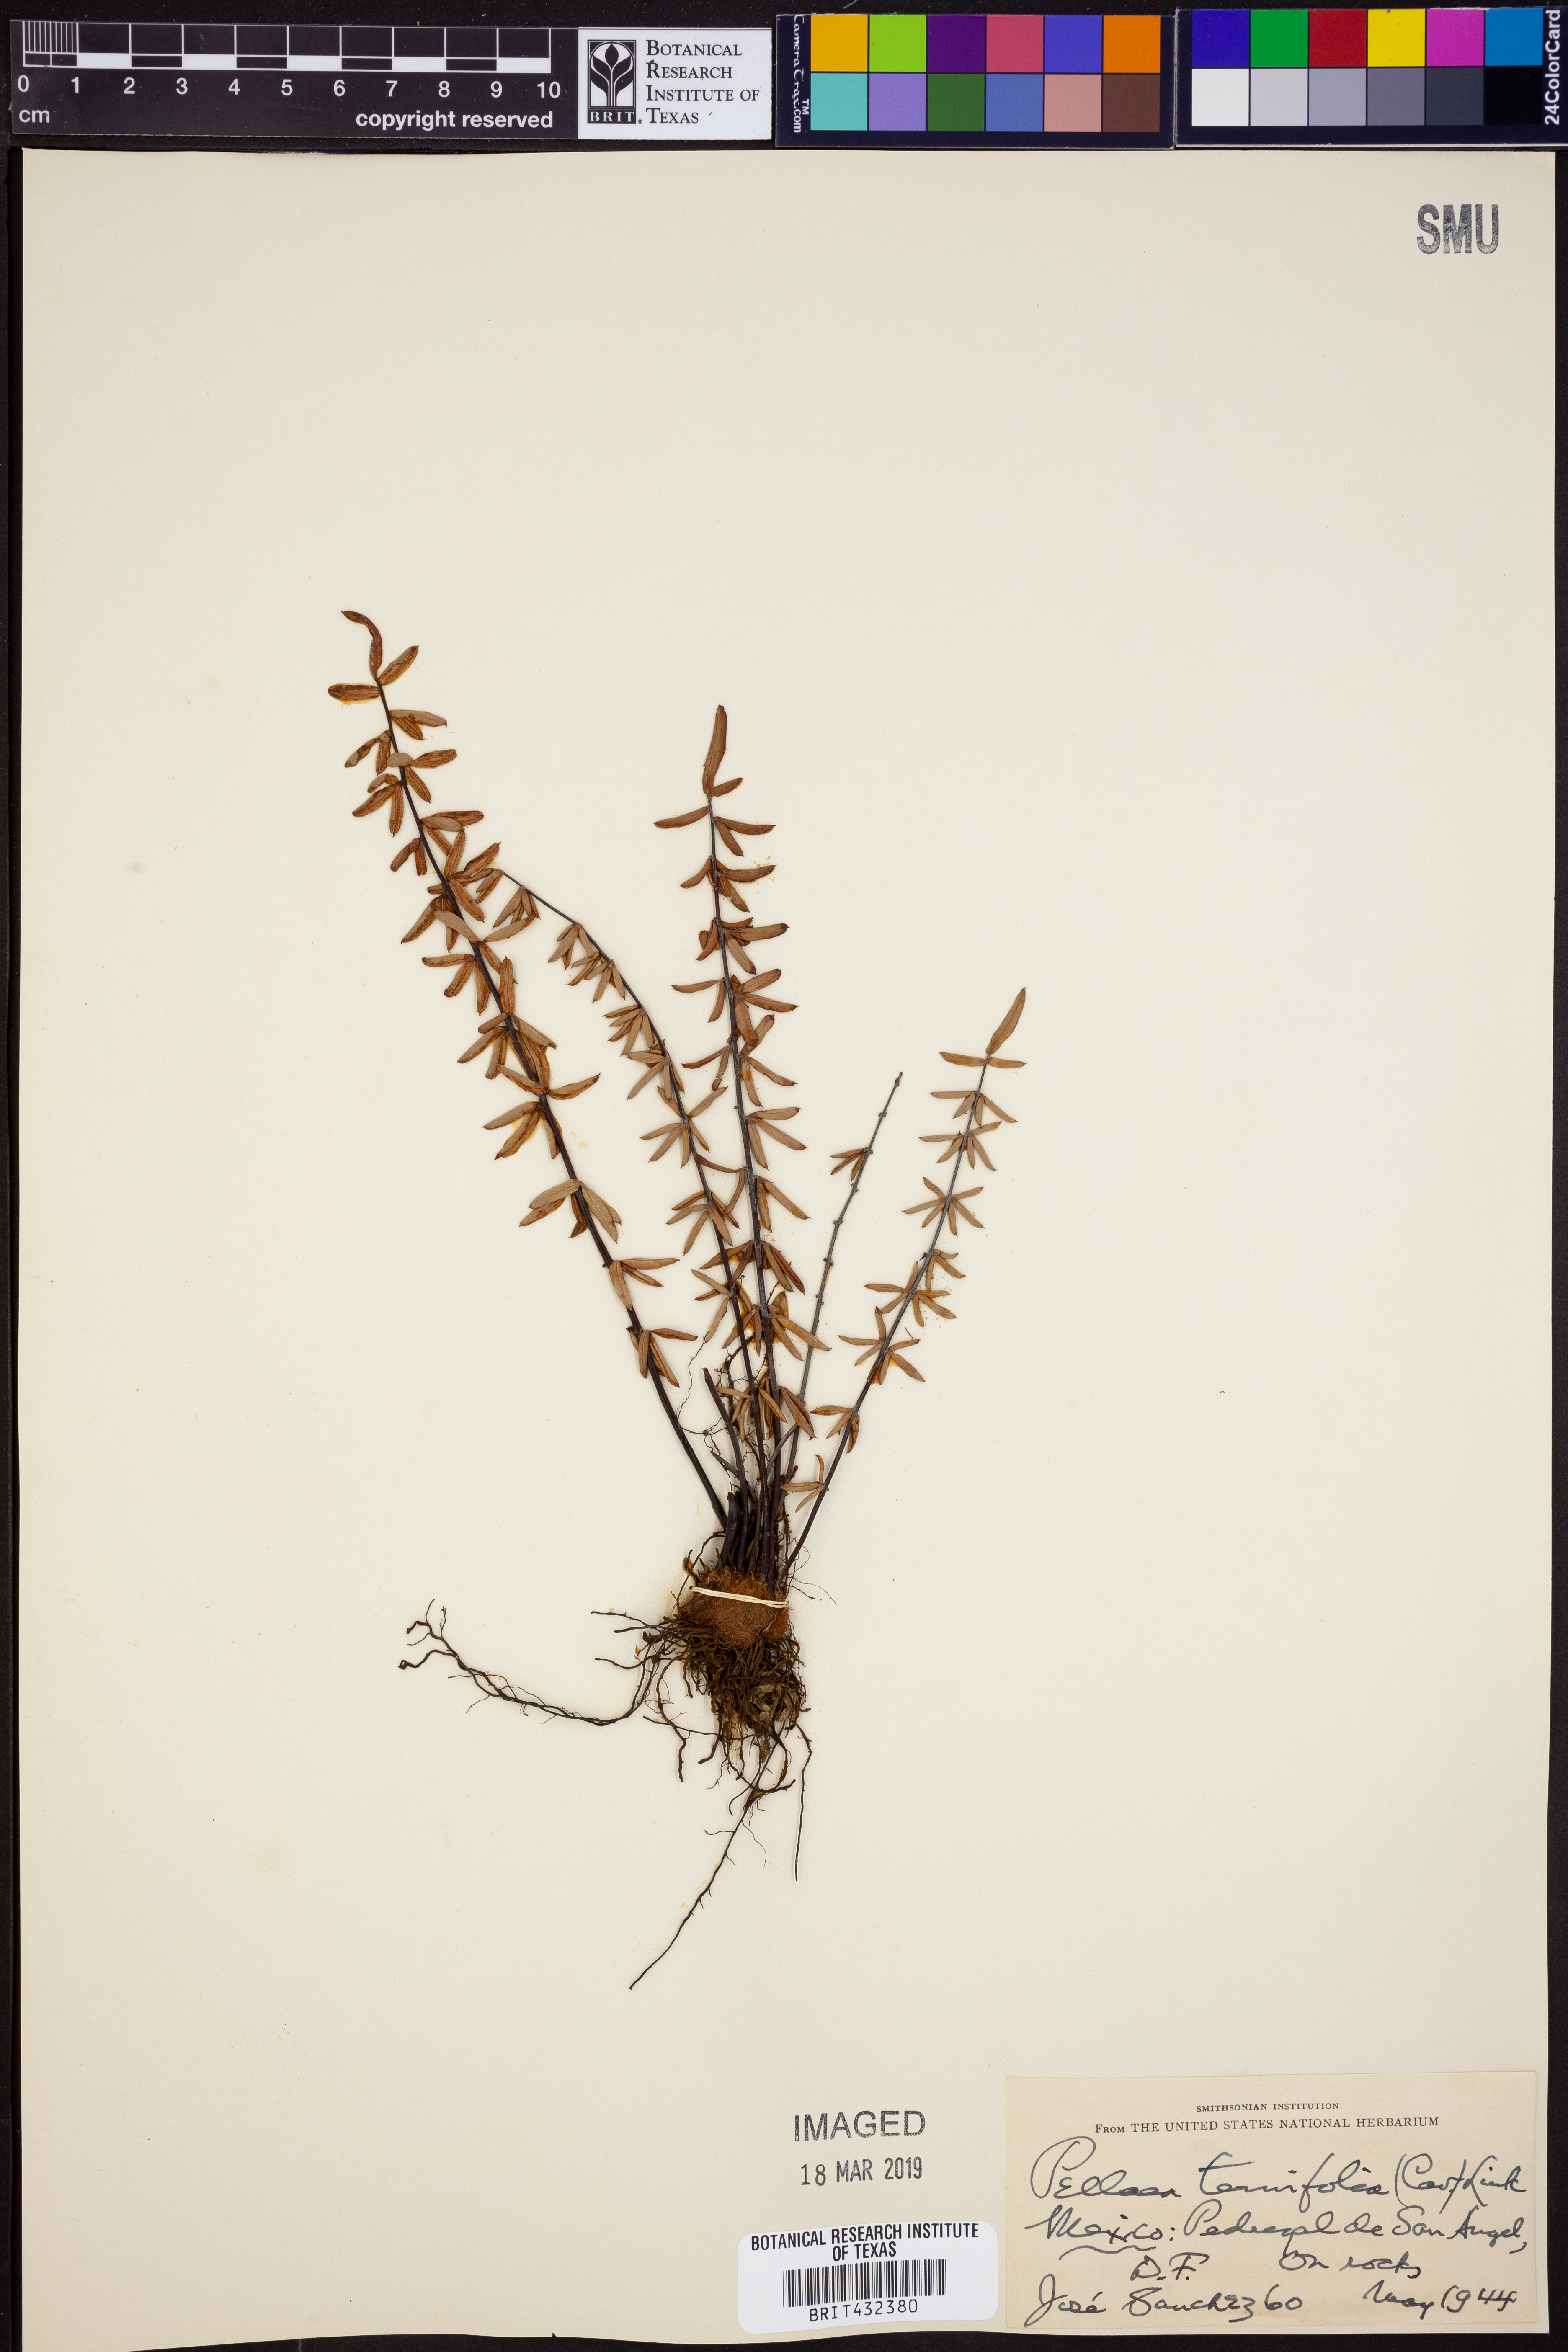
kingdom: Plantae
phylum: Tracheophyta
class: Polypodiopsida
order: Polypodiales
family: Pteridaceae
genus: Pellaea
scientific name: Pellaea ternifolia
